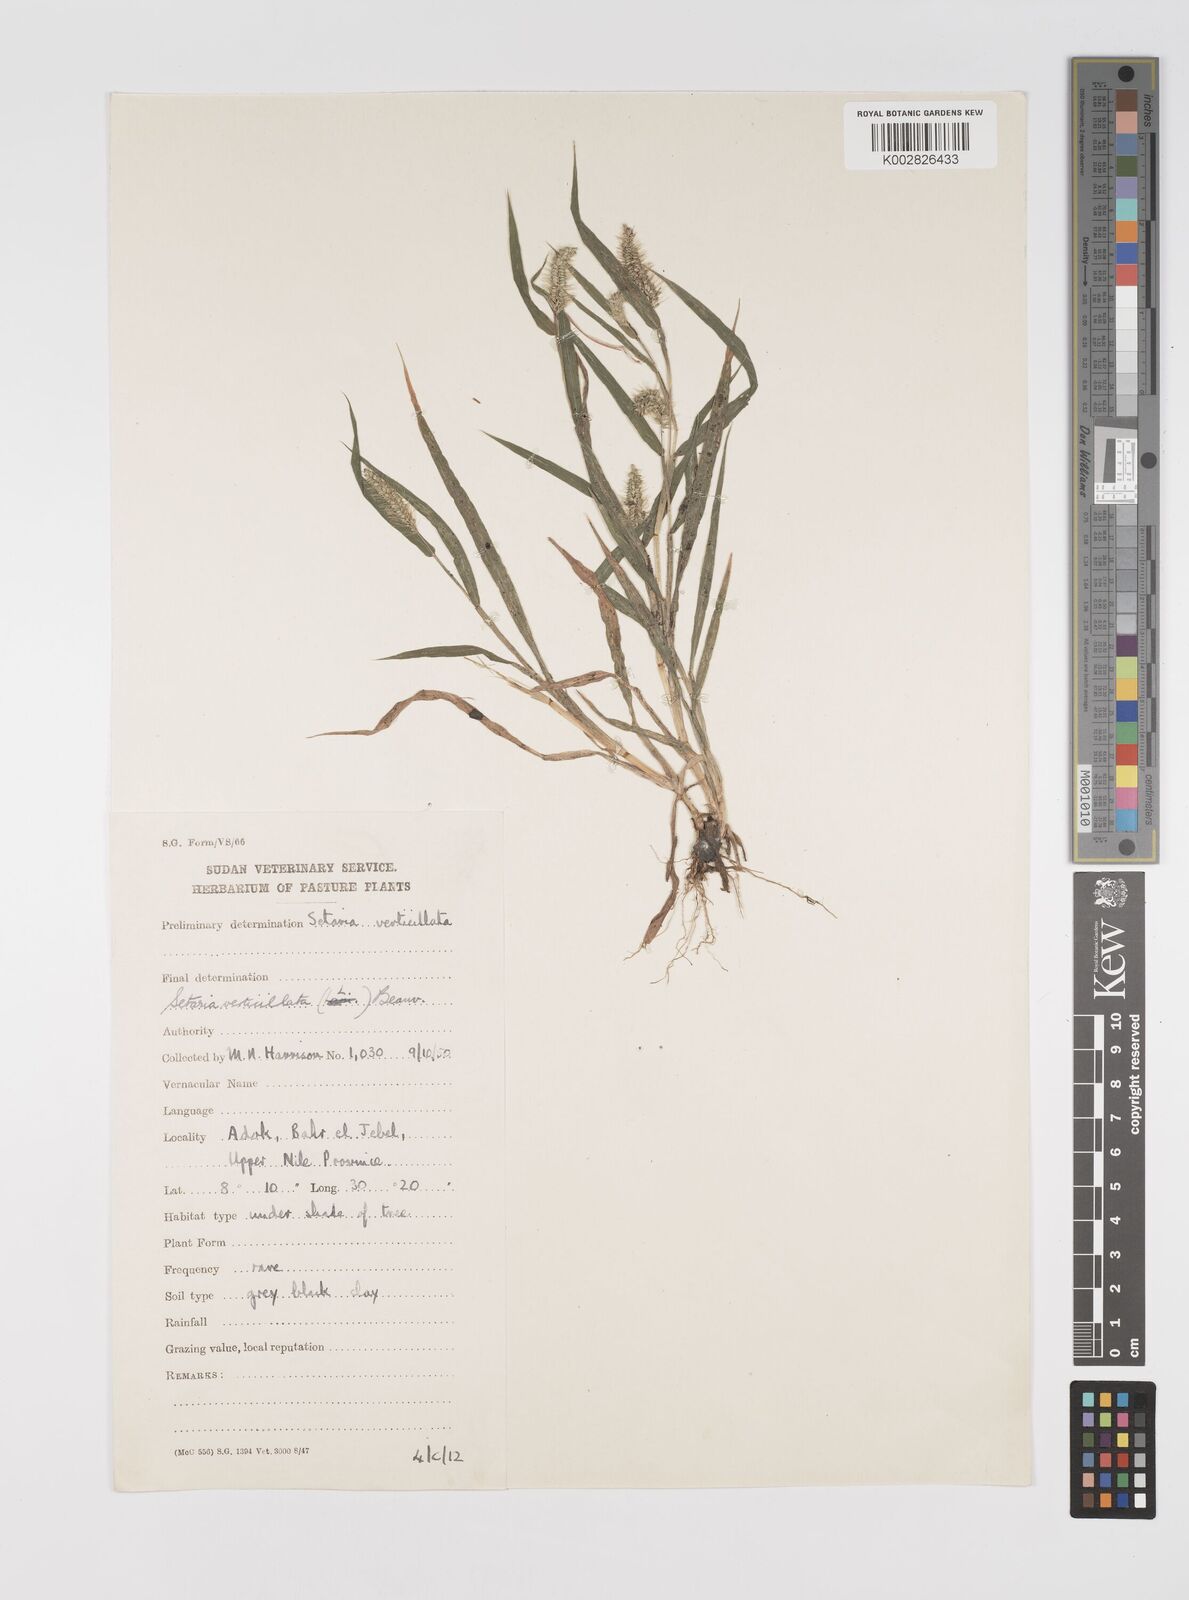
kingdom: Plantae
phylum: Tracheophyta
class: Liliopsida
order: Poales
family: Poaceae
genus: Setaria
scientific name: Setaria verticillata
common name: Hooked bristlegrass
